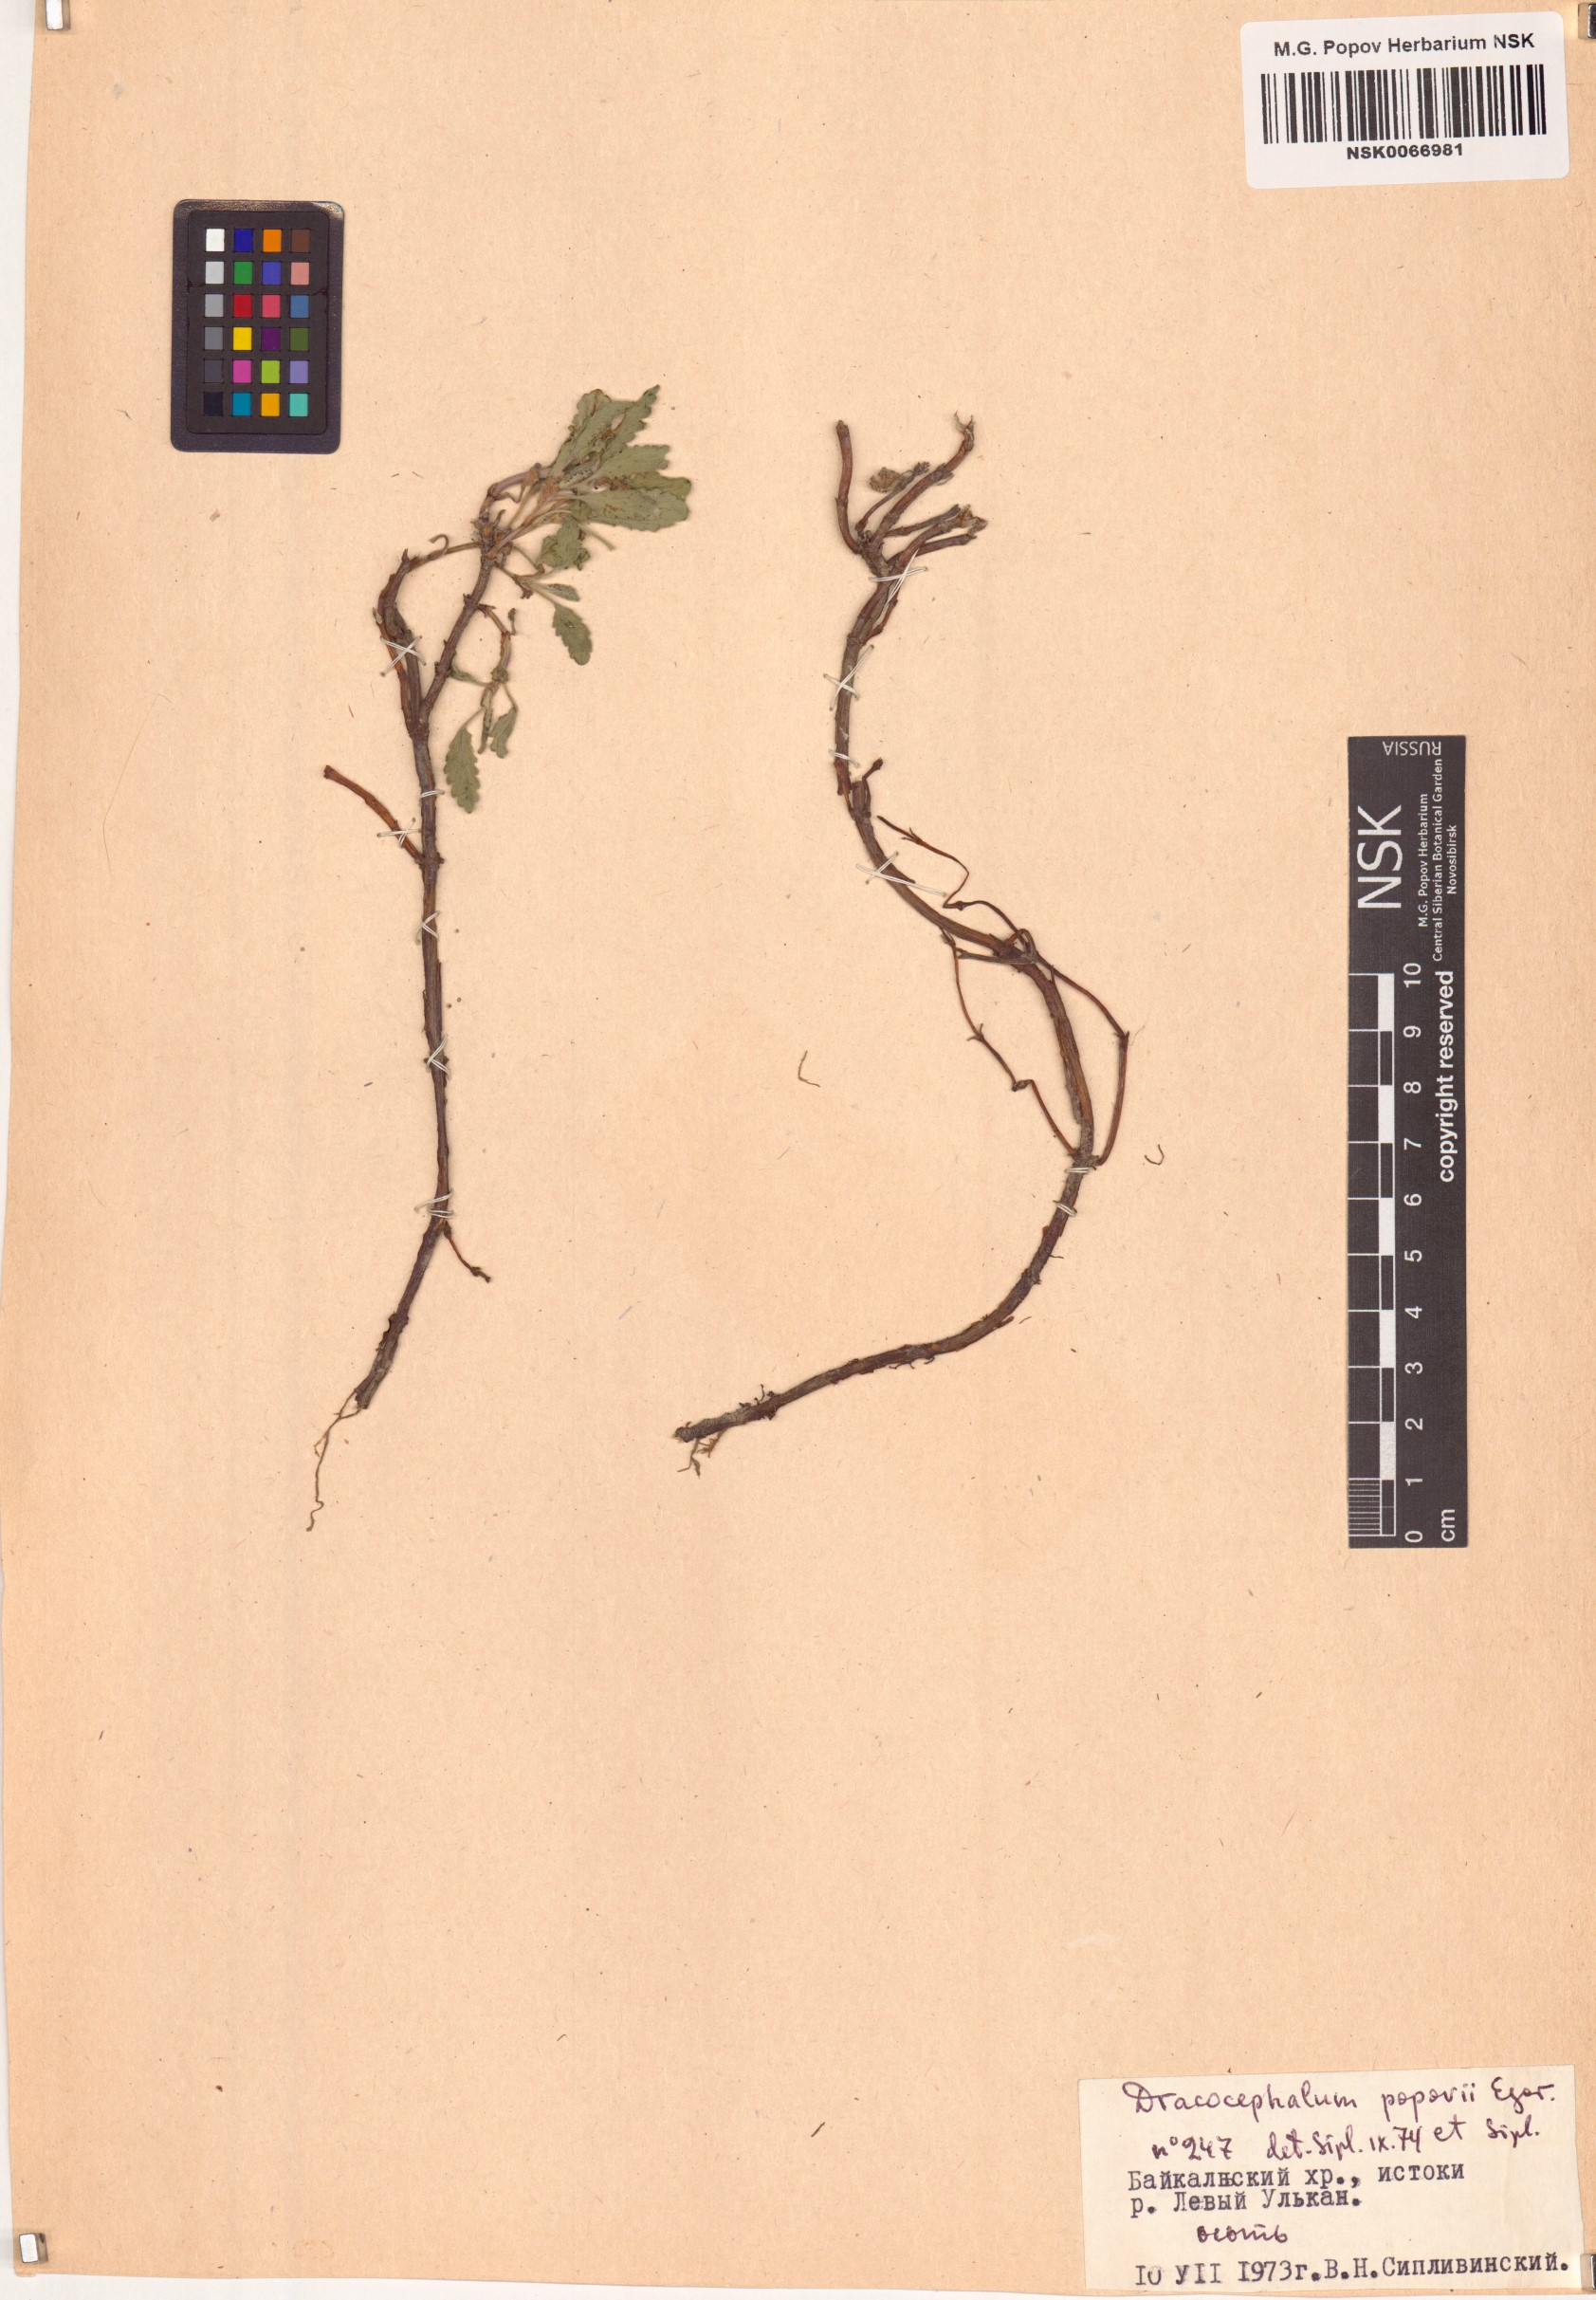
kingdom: Plantae
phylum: Tracheophyta
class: Magnoliopsida
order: Lamiales
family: Lamiaceae
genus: Dracocephalum
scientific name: Dracocephalum popovii
